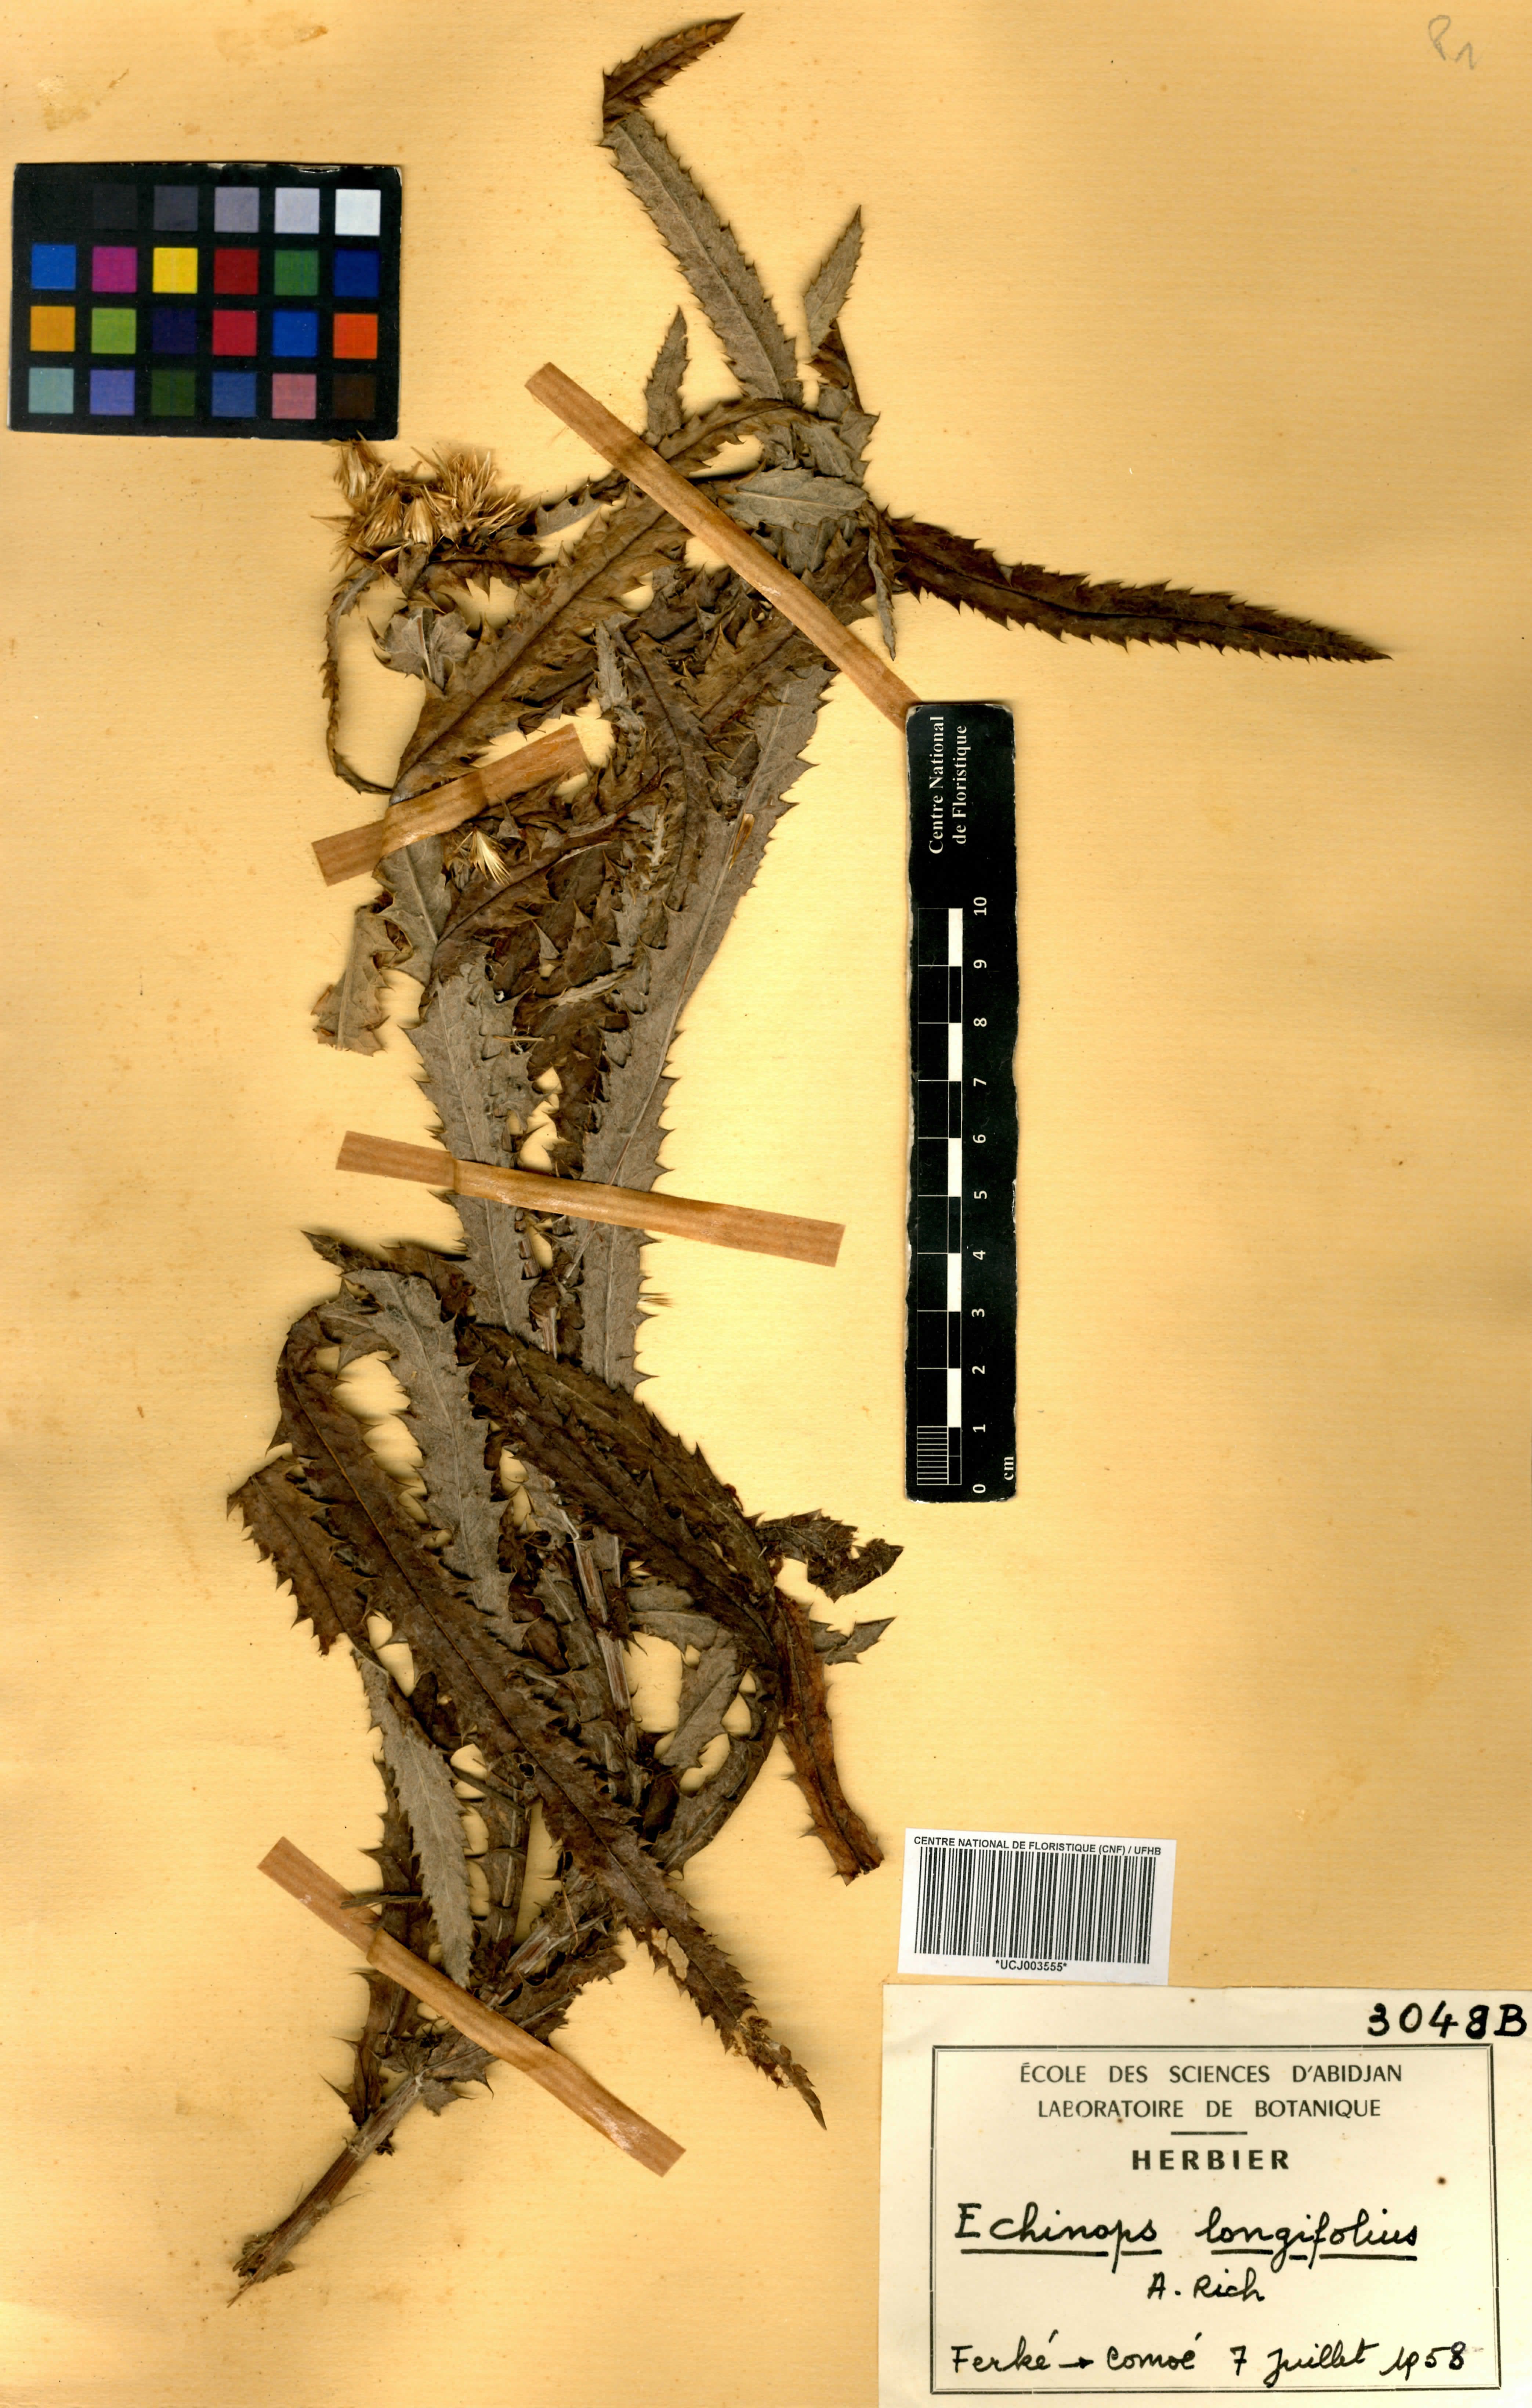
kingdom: Plantae
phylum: Tracheophyta
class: Magnoliopsida
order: Asterales
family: Asteraceae
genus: Echinops
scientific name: Echinops longifolius
